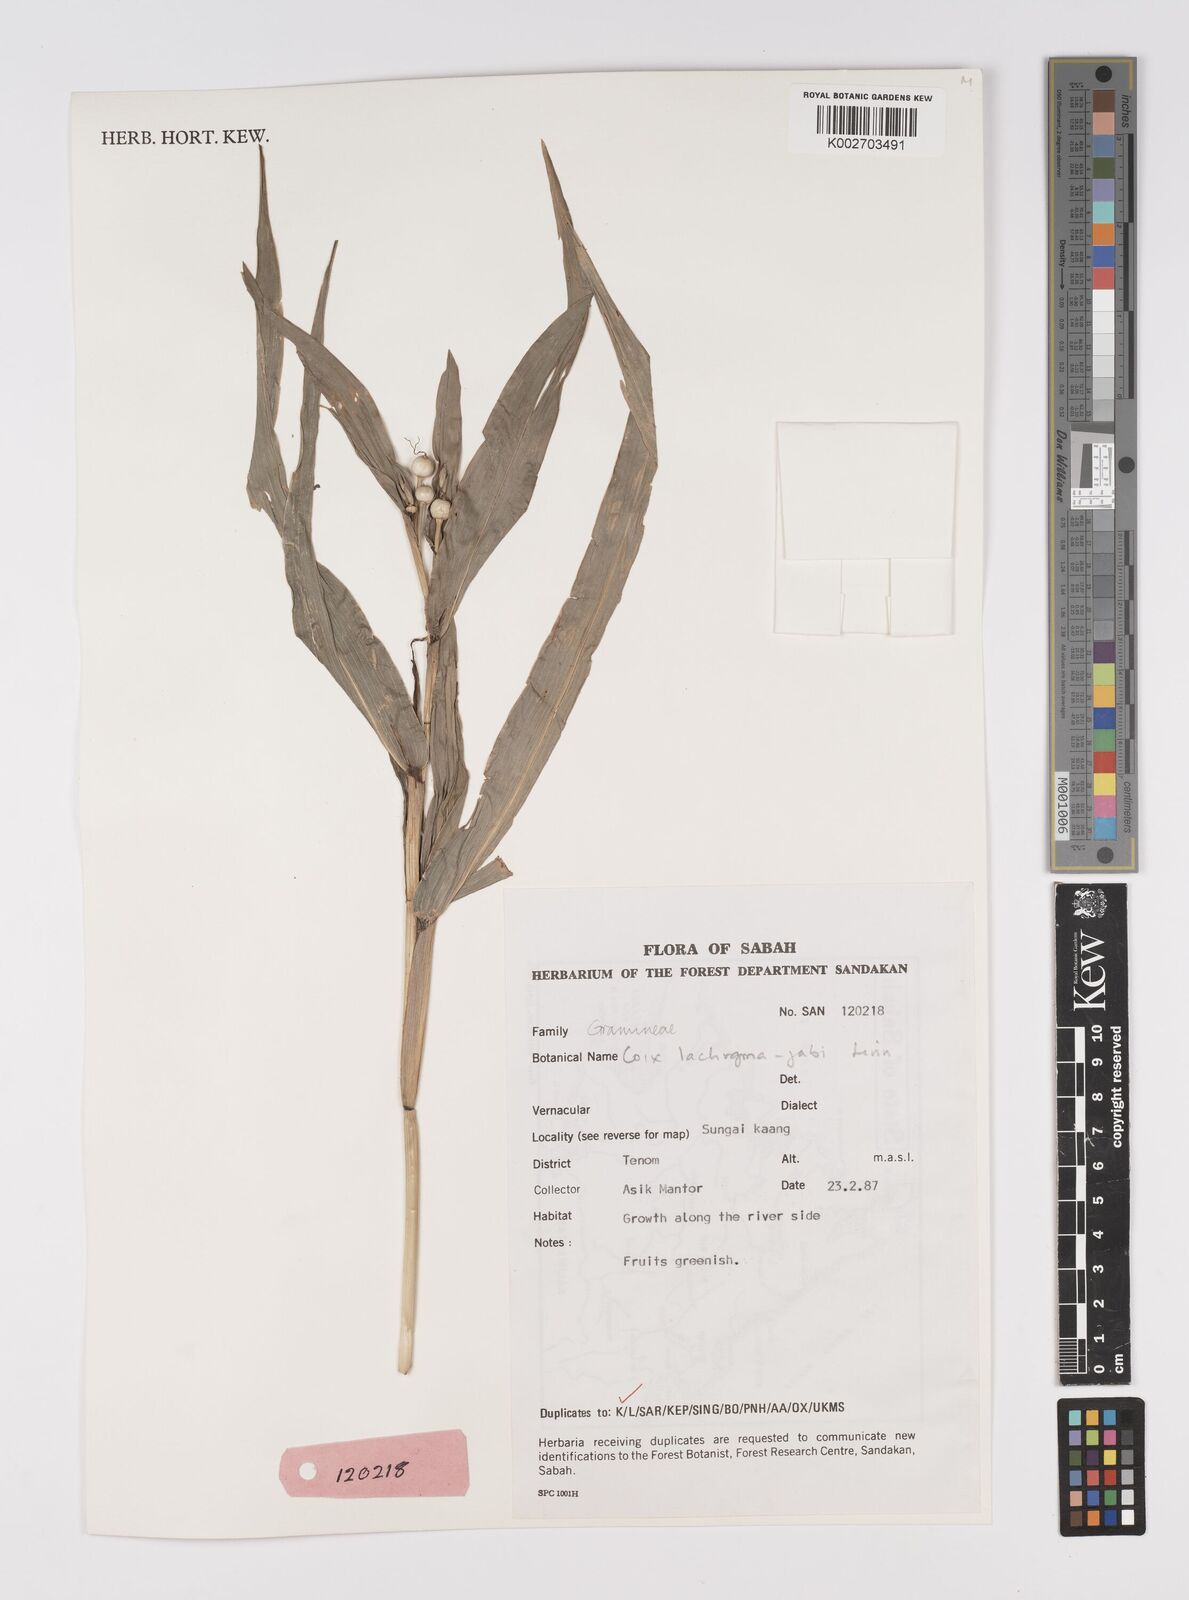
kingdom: Plantae
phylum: Tracheophyta
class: Liliopsida
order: Poales
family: Poaceae
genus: Coix
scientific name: Coix lacryma-jobi
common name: Job's tears
